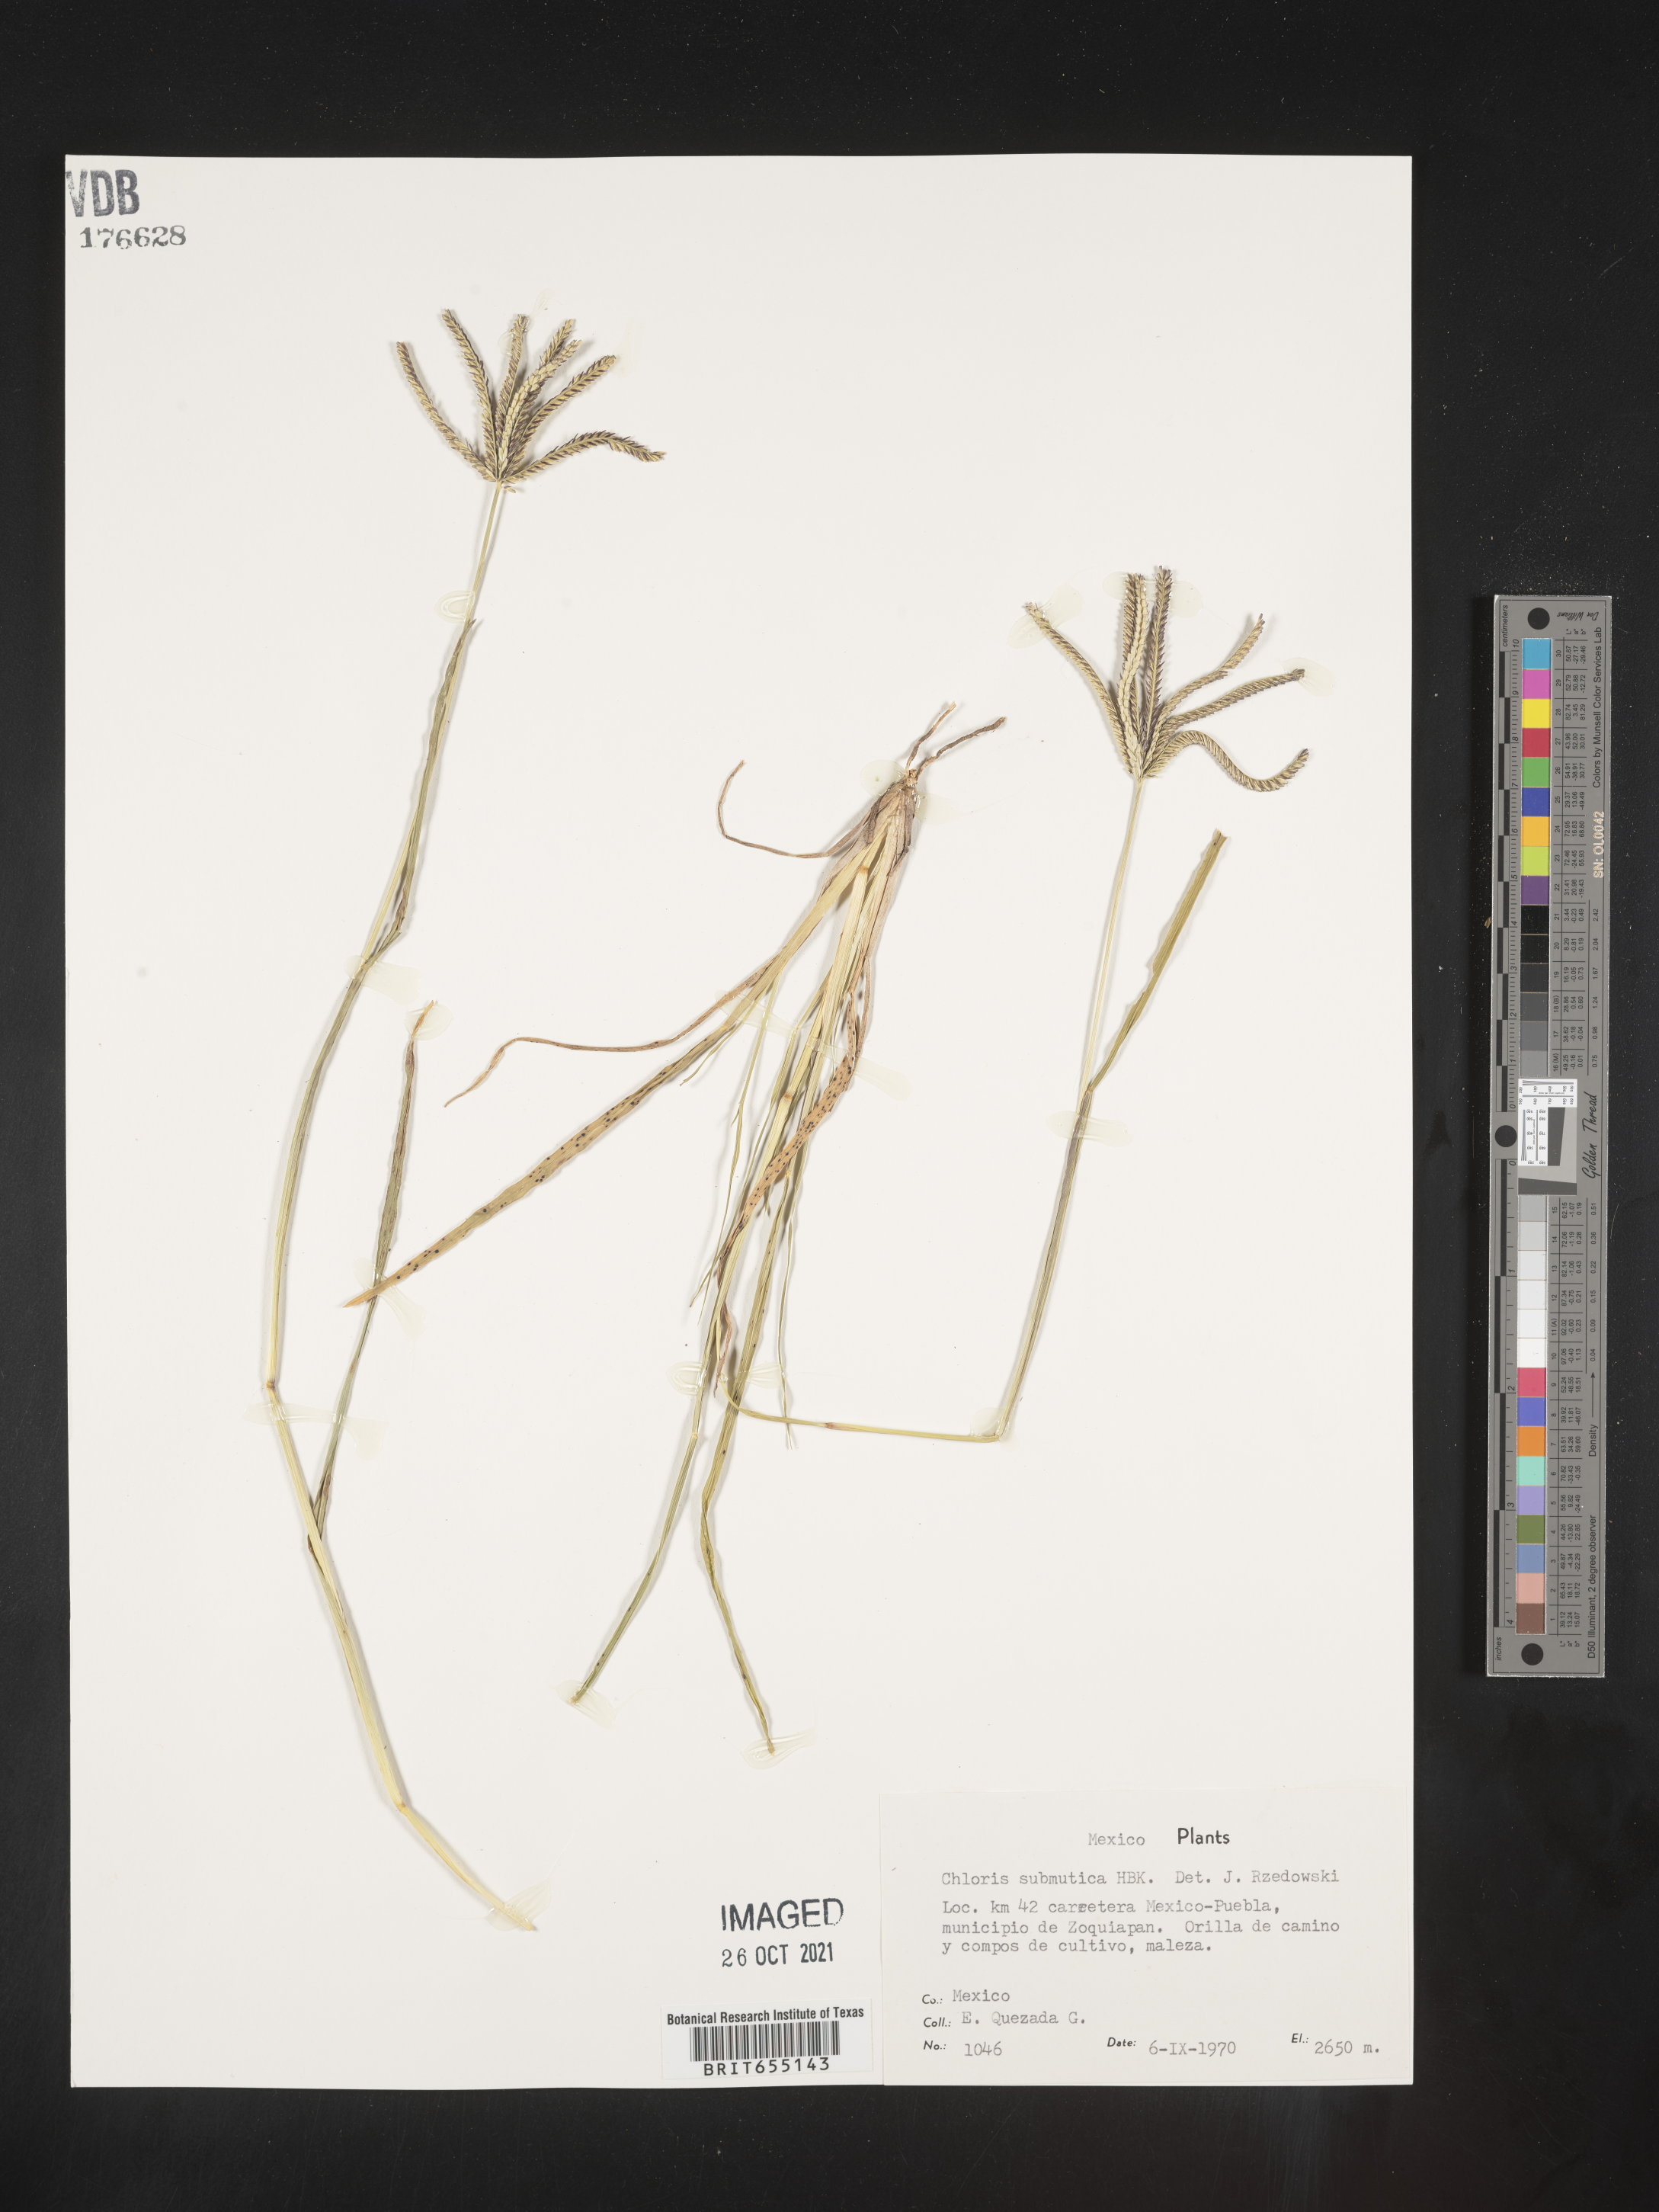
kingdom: Plantae
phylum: Tracheophyta
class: Liliopsida
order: Poales
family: Poaceae
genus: Chloris
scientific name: Chloris
